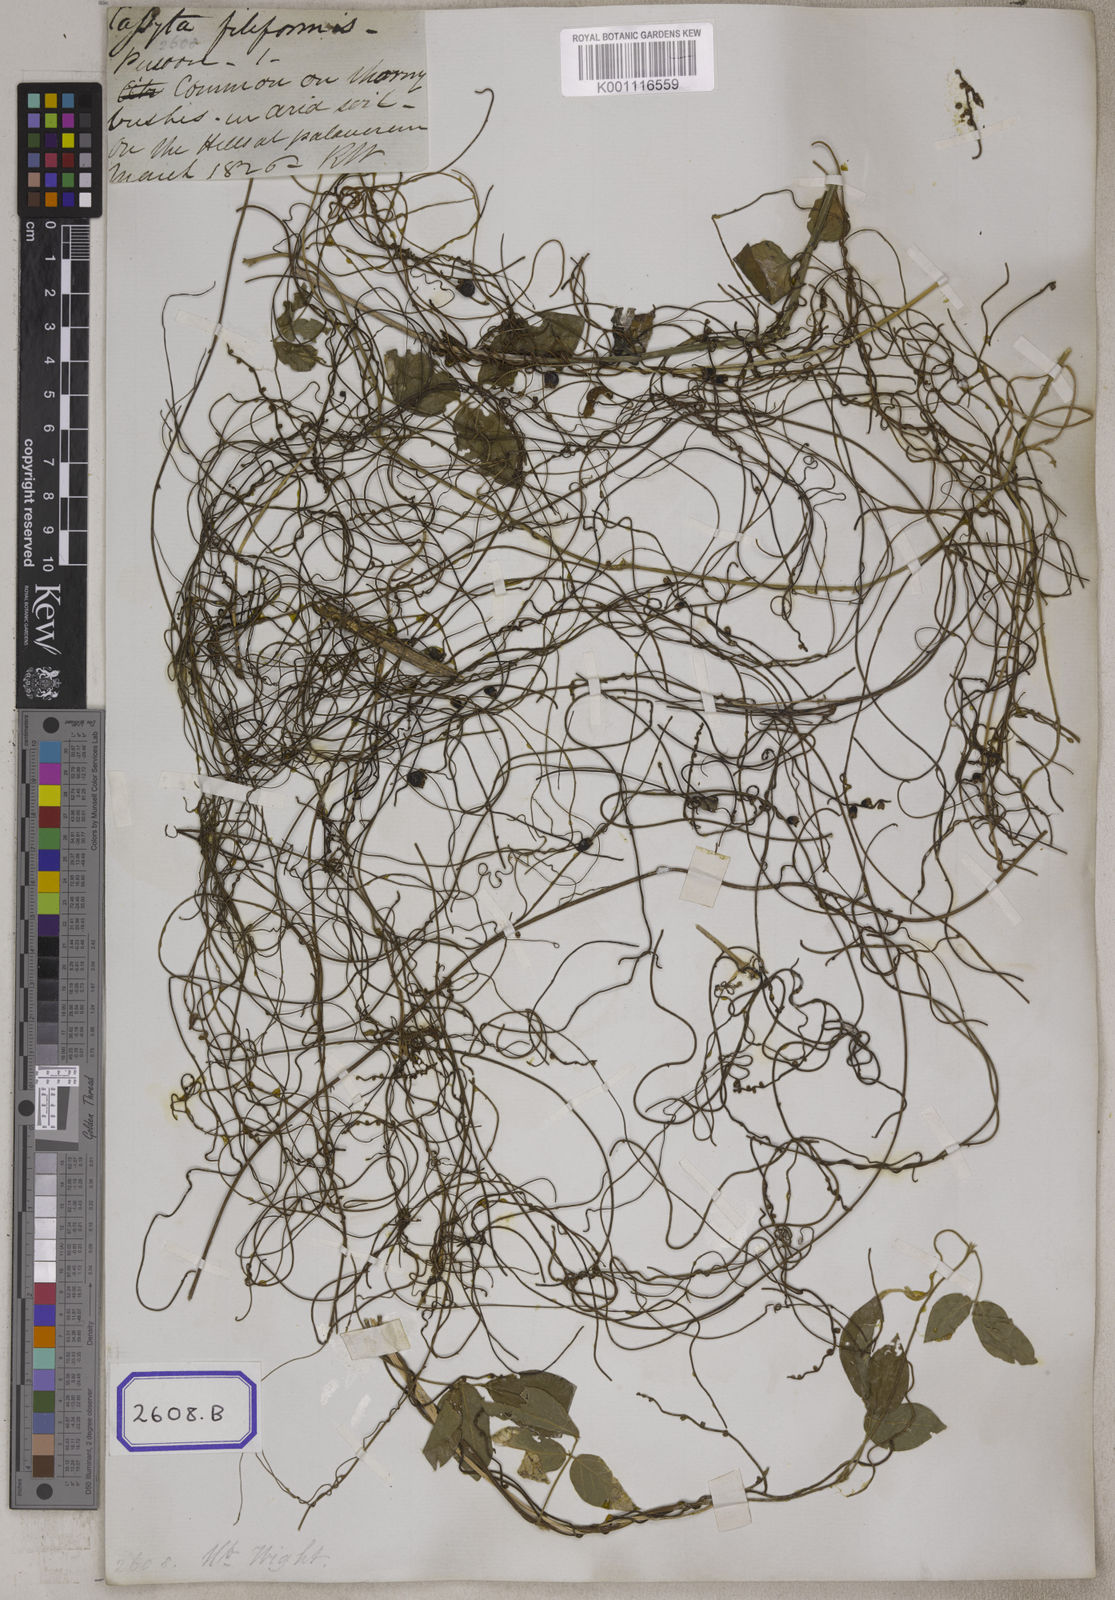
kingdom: Plantae
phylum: Tracheophyta
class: Magnoliopsida
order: Laurales
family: Lauraceae
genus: Cassytha
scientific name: Cassytha filiformis
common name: Dodder-laurel
